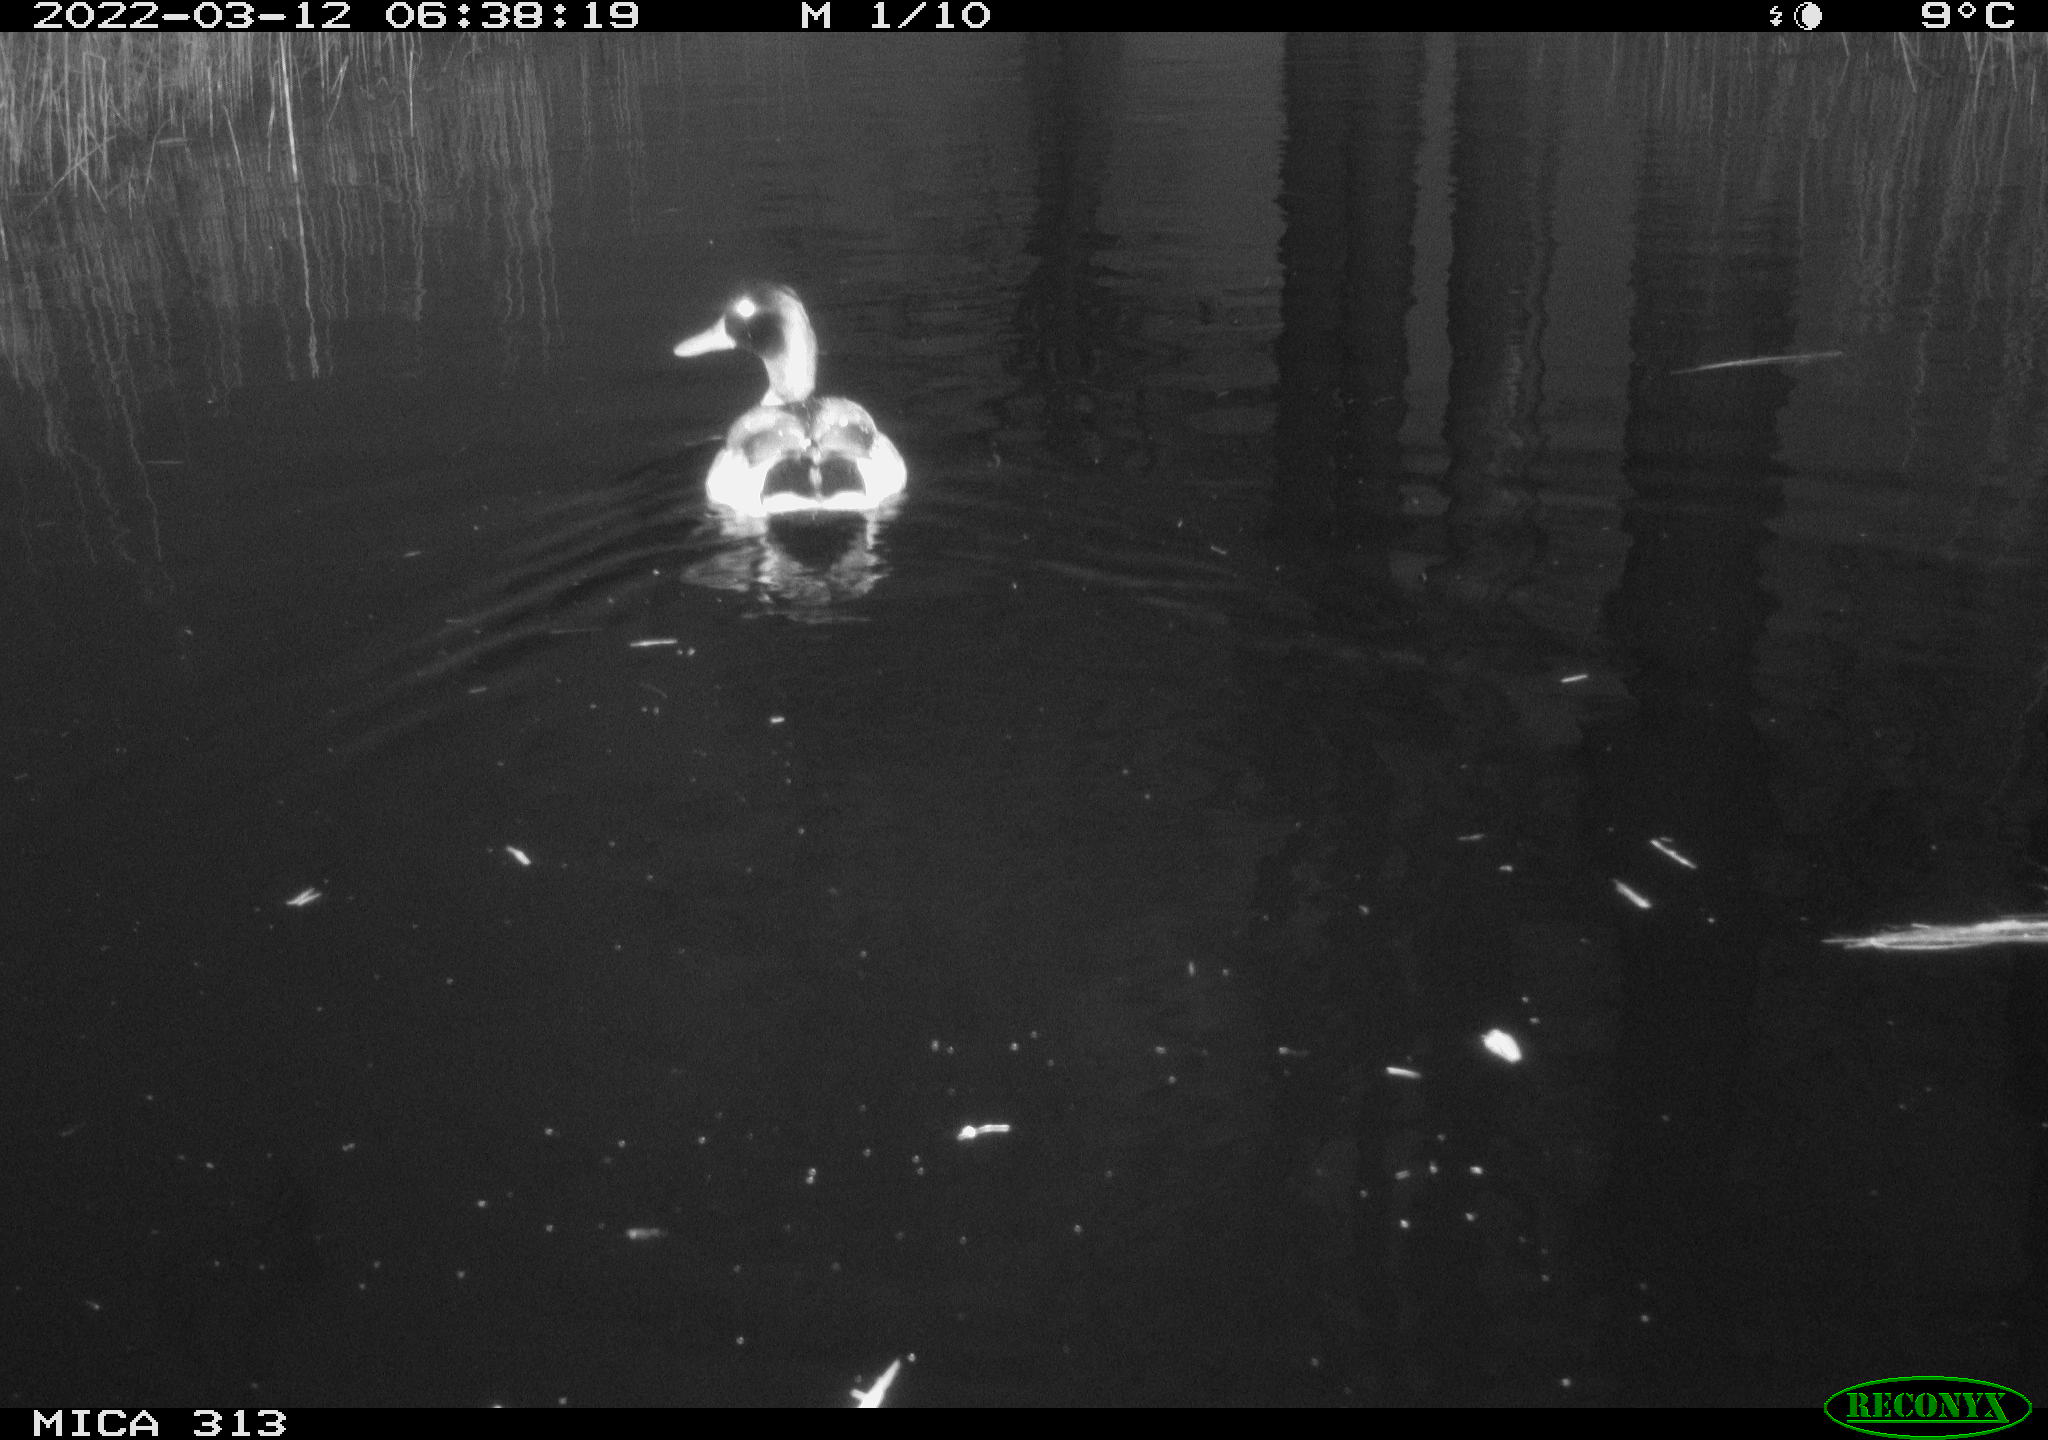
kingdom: Animalia
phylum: Chordata
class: Aves
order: Anseriformes
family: Anatidae
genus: Anas
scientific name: Anas platyrhynchos
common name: Mallard
